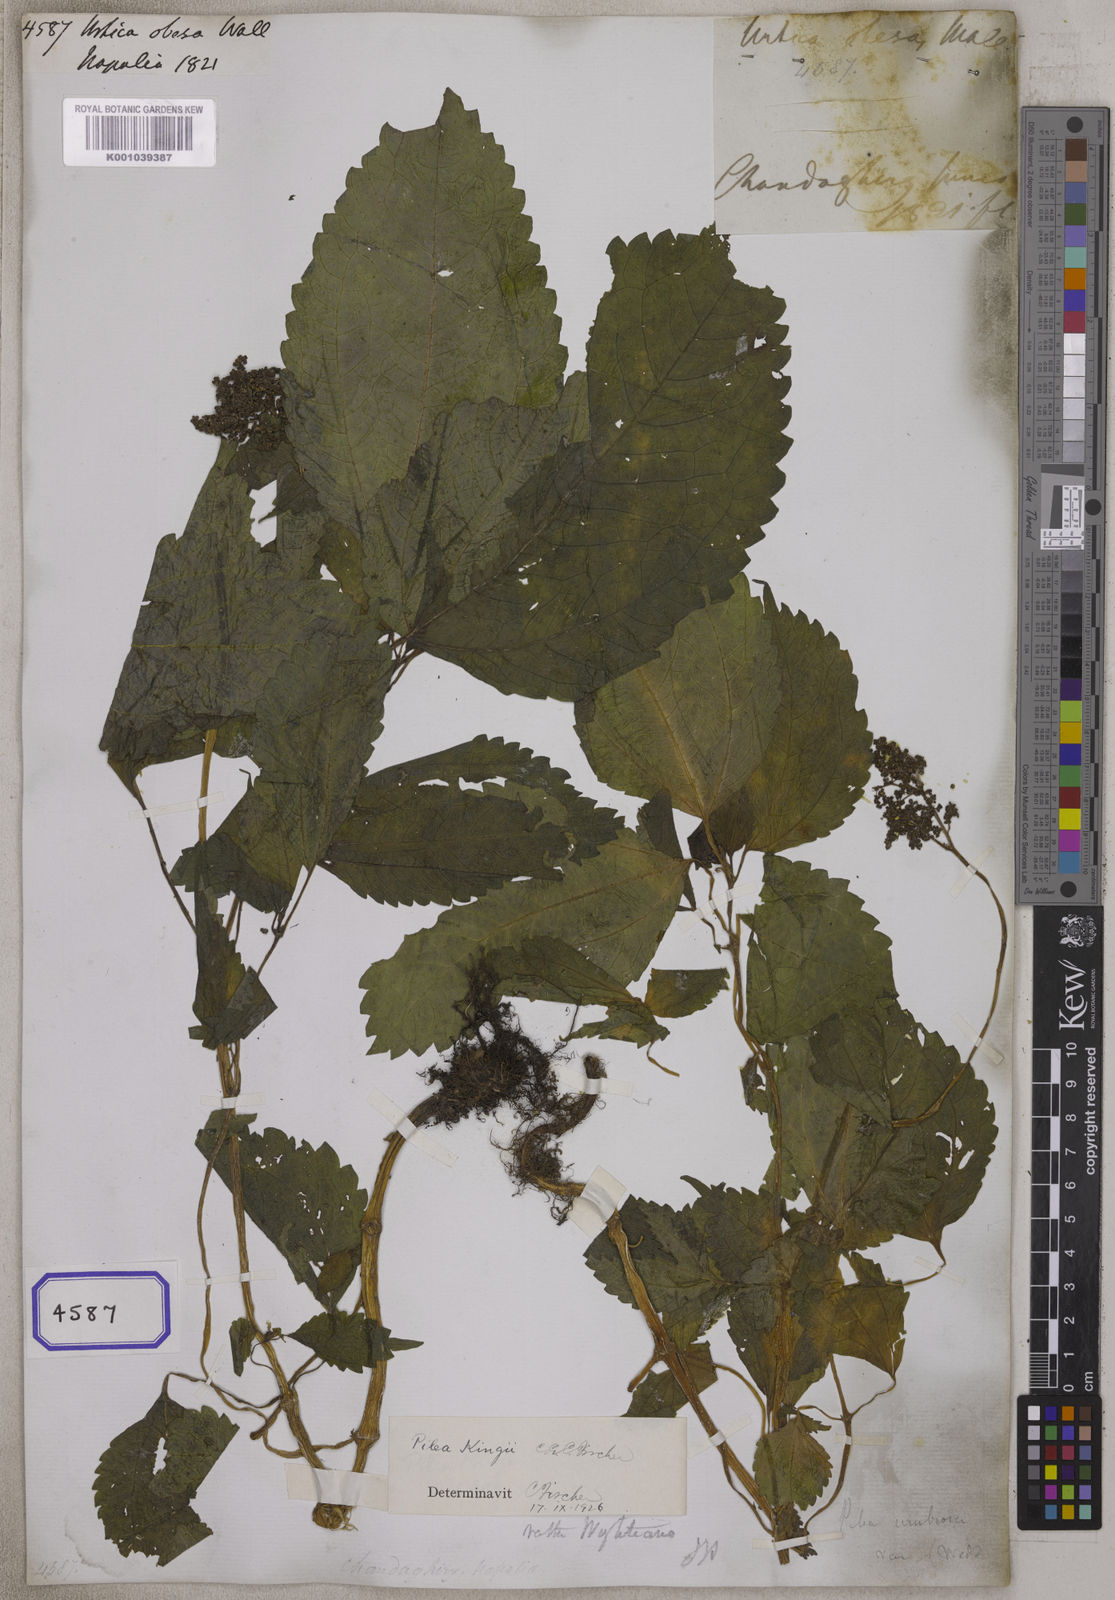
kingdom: Plantae
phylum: Tracheophyta
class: Magnoliopsida
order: Rosales
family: Urticaceae
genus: Pilea
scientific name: Pilea obesa
